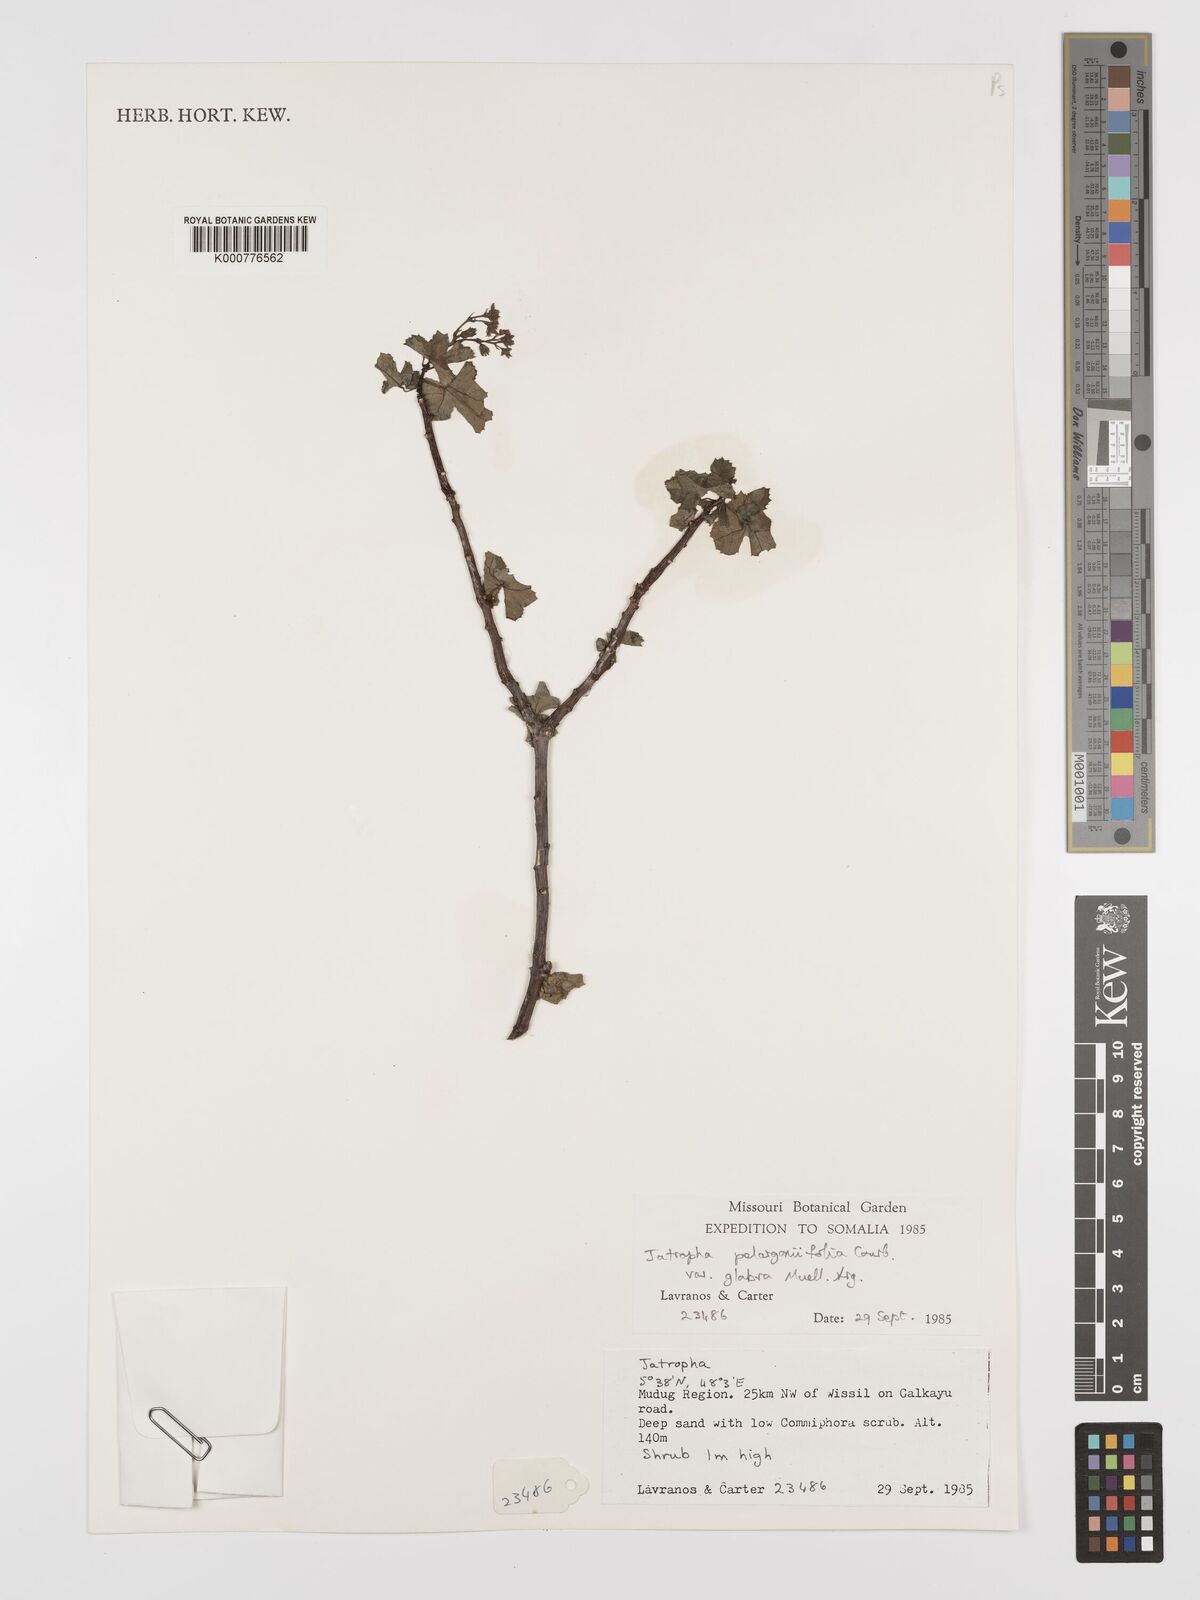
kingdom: Plantae
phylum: Tracheophyta
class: Magnoliopsida
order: Malpighiales
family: Euphorbiaceae
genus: Jatropha
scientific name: Jatropha pelargoniifolia
